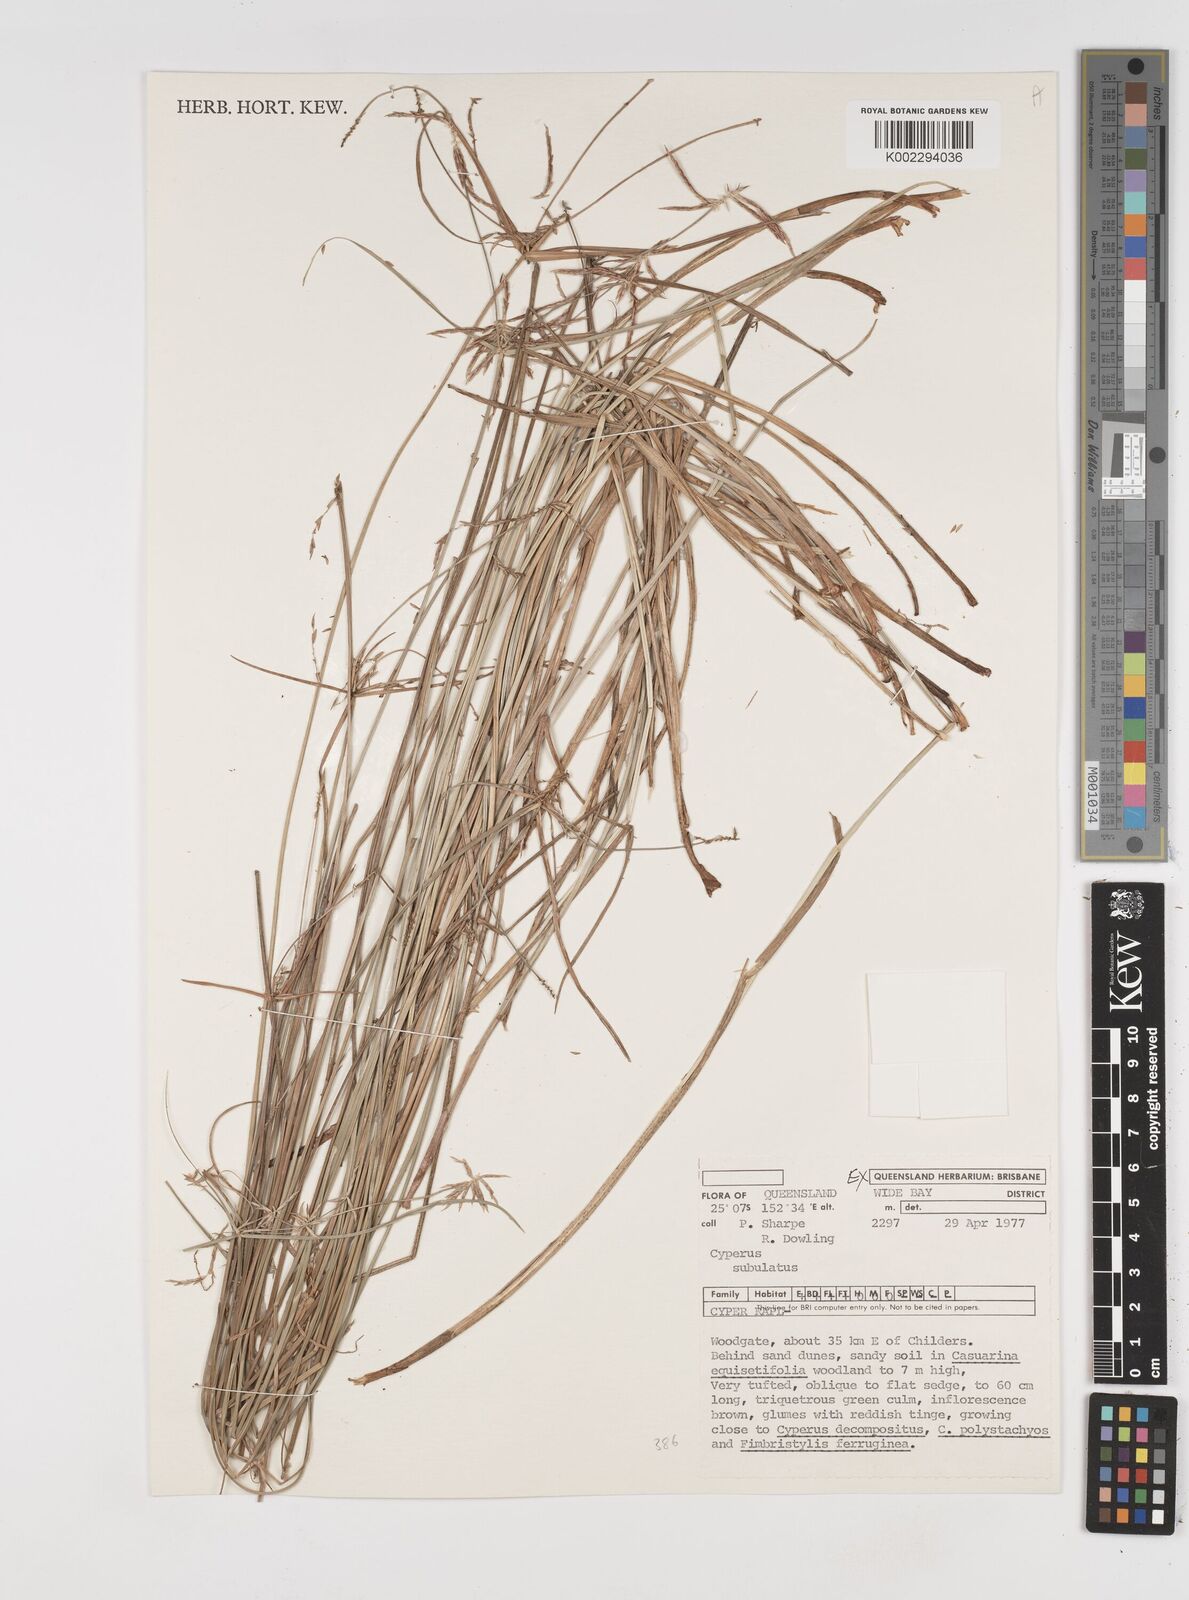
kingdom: Plantae
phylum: Tracheophyta
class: Liliopsida
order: Poales
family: Cyperaceae
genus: Cyperus
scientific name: Cyperus subulatus
